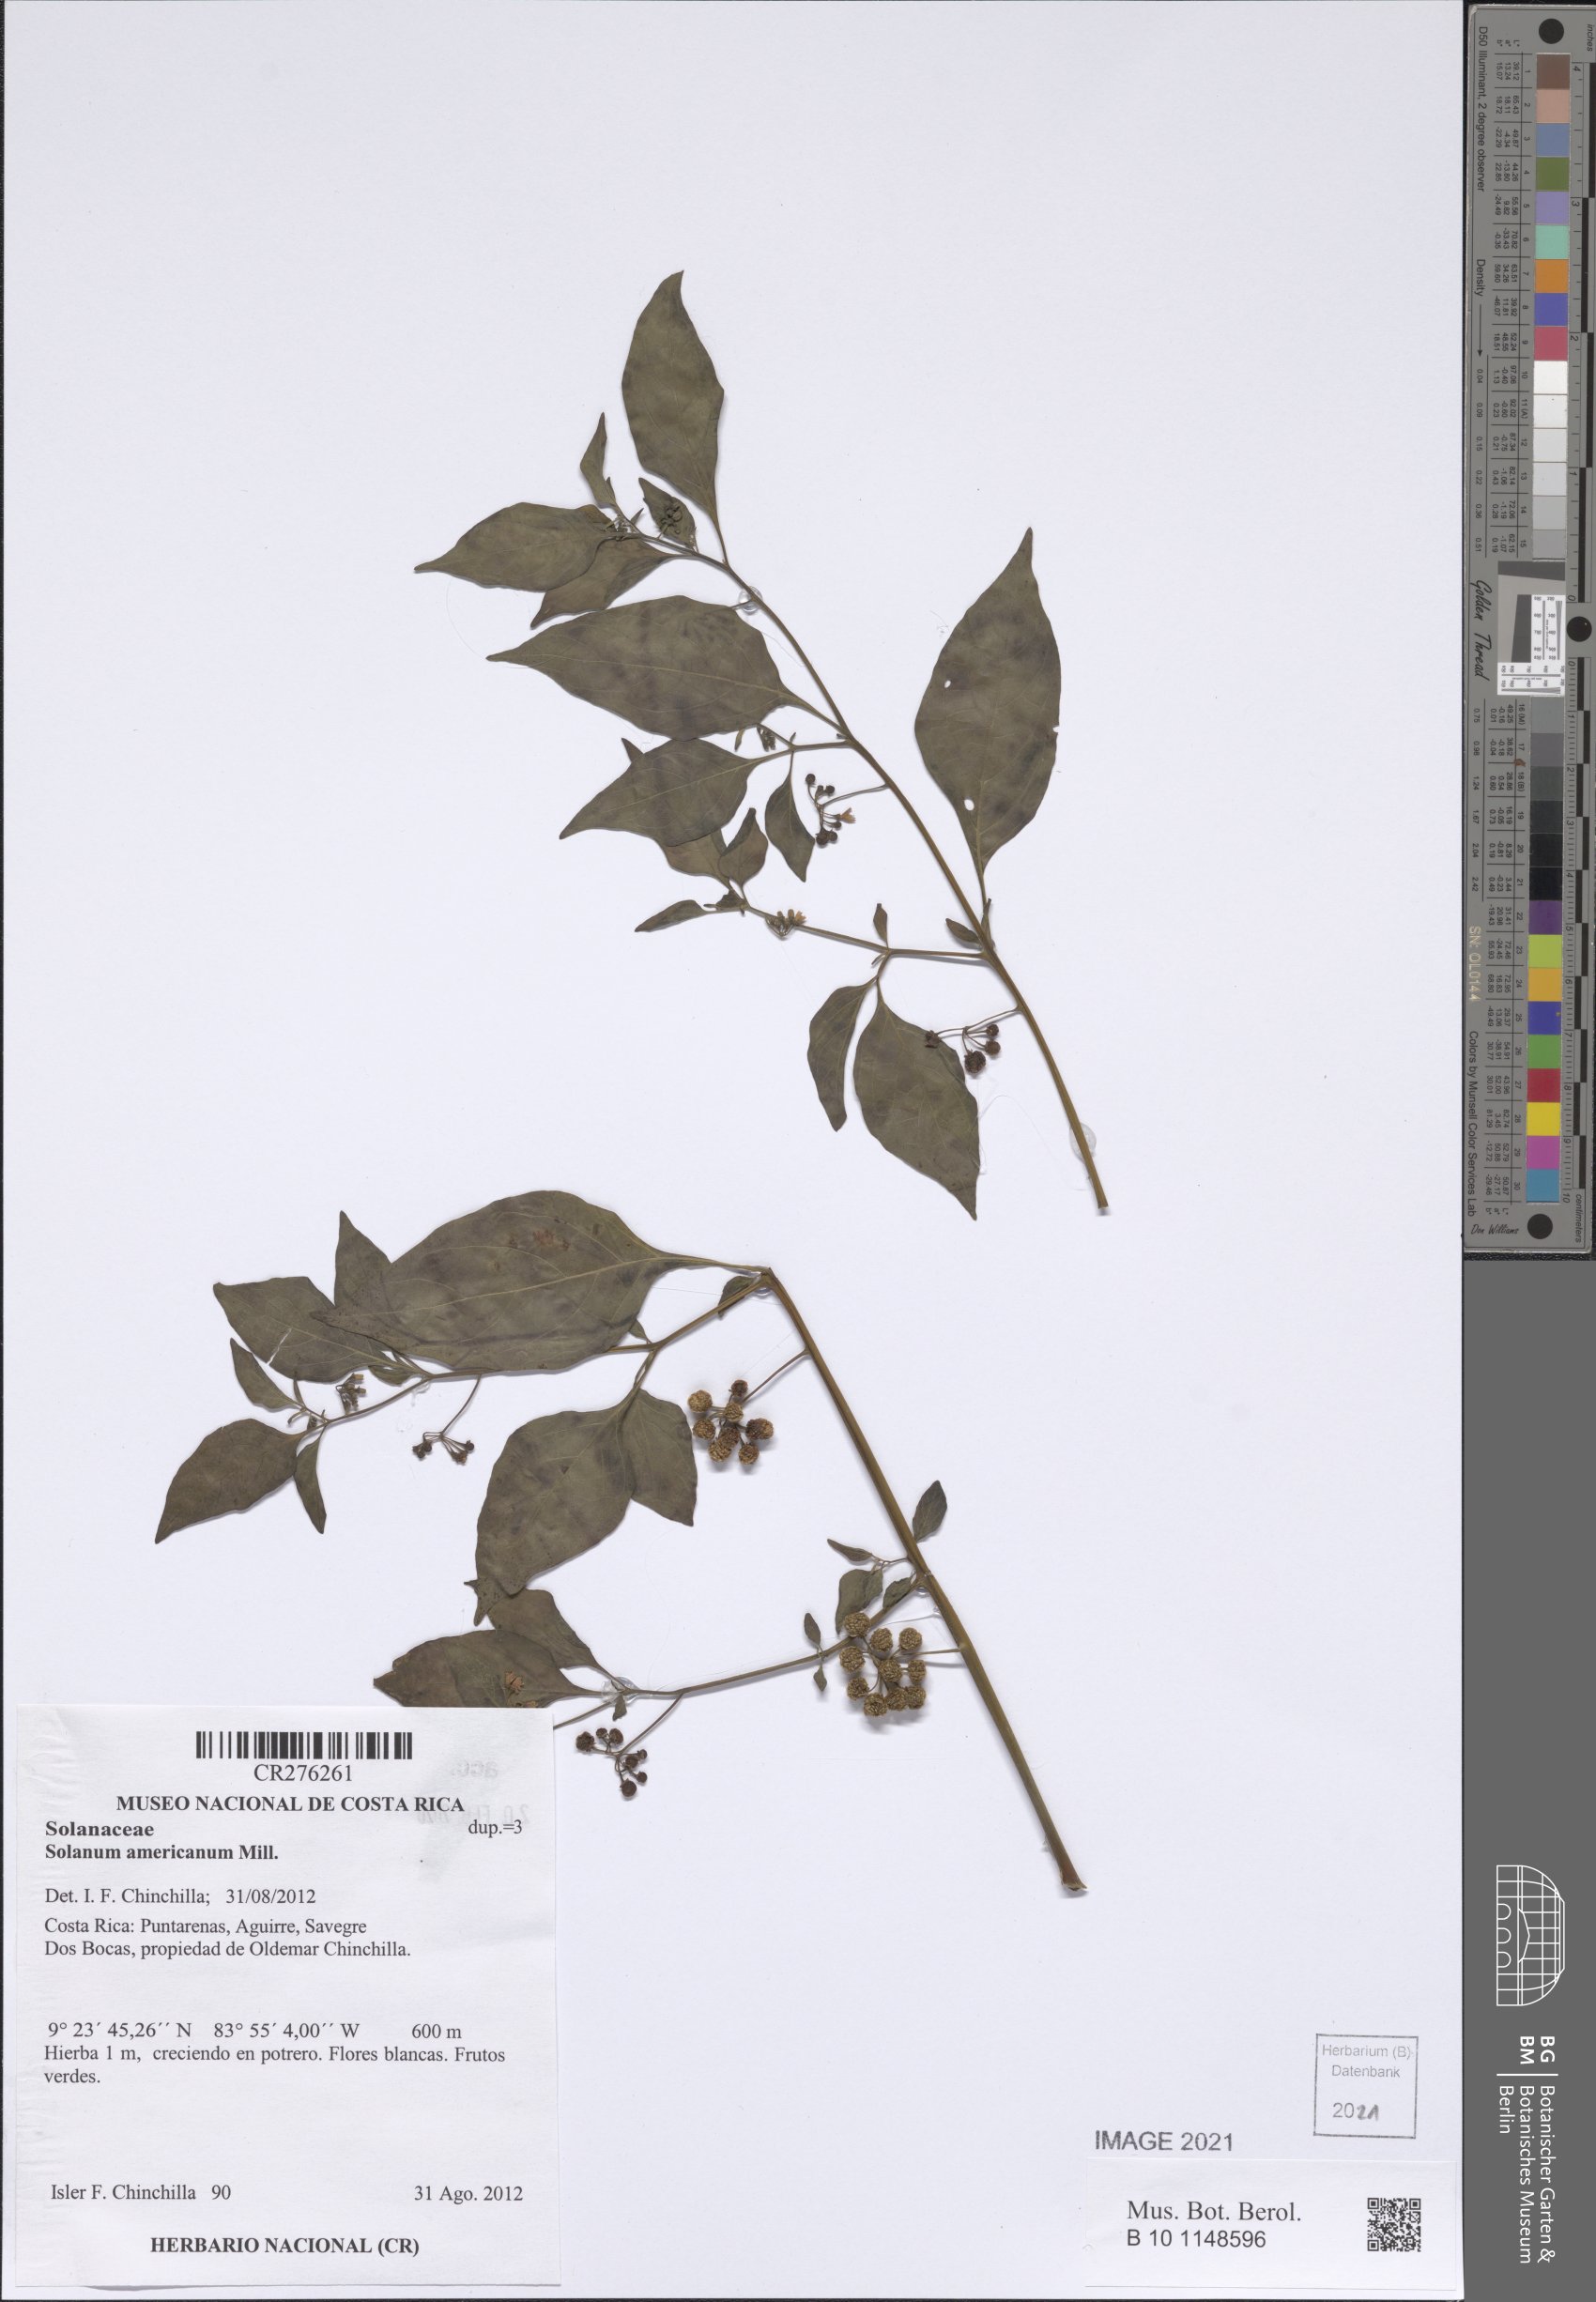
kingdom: Plantae
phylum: Tracheophyta
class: Magnoliopsida
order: Solanales
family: Solanaceae
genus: Solanum
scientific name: Solanum americanum
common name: American black nightshade
